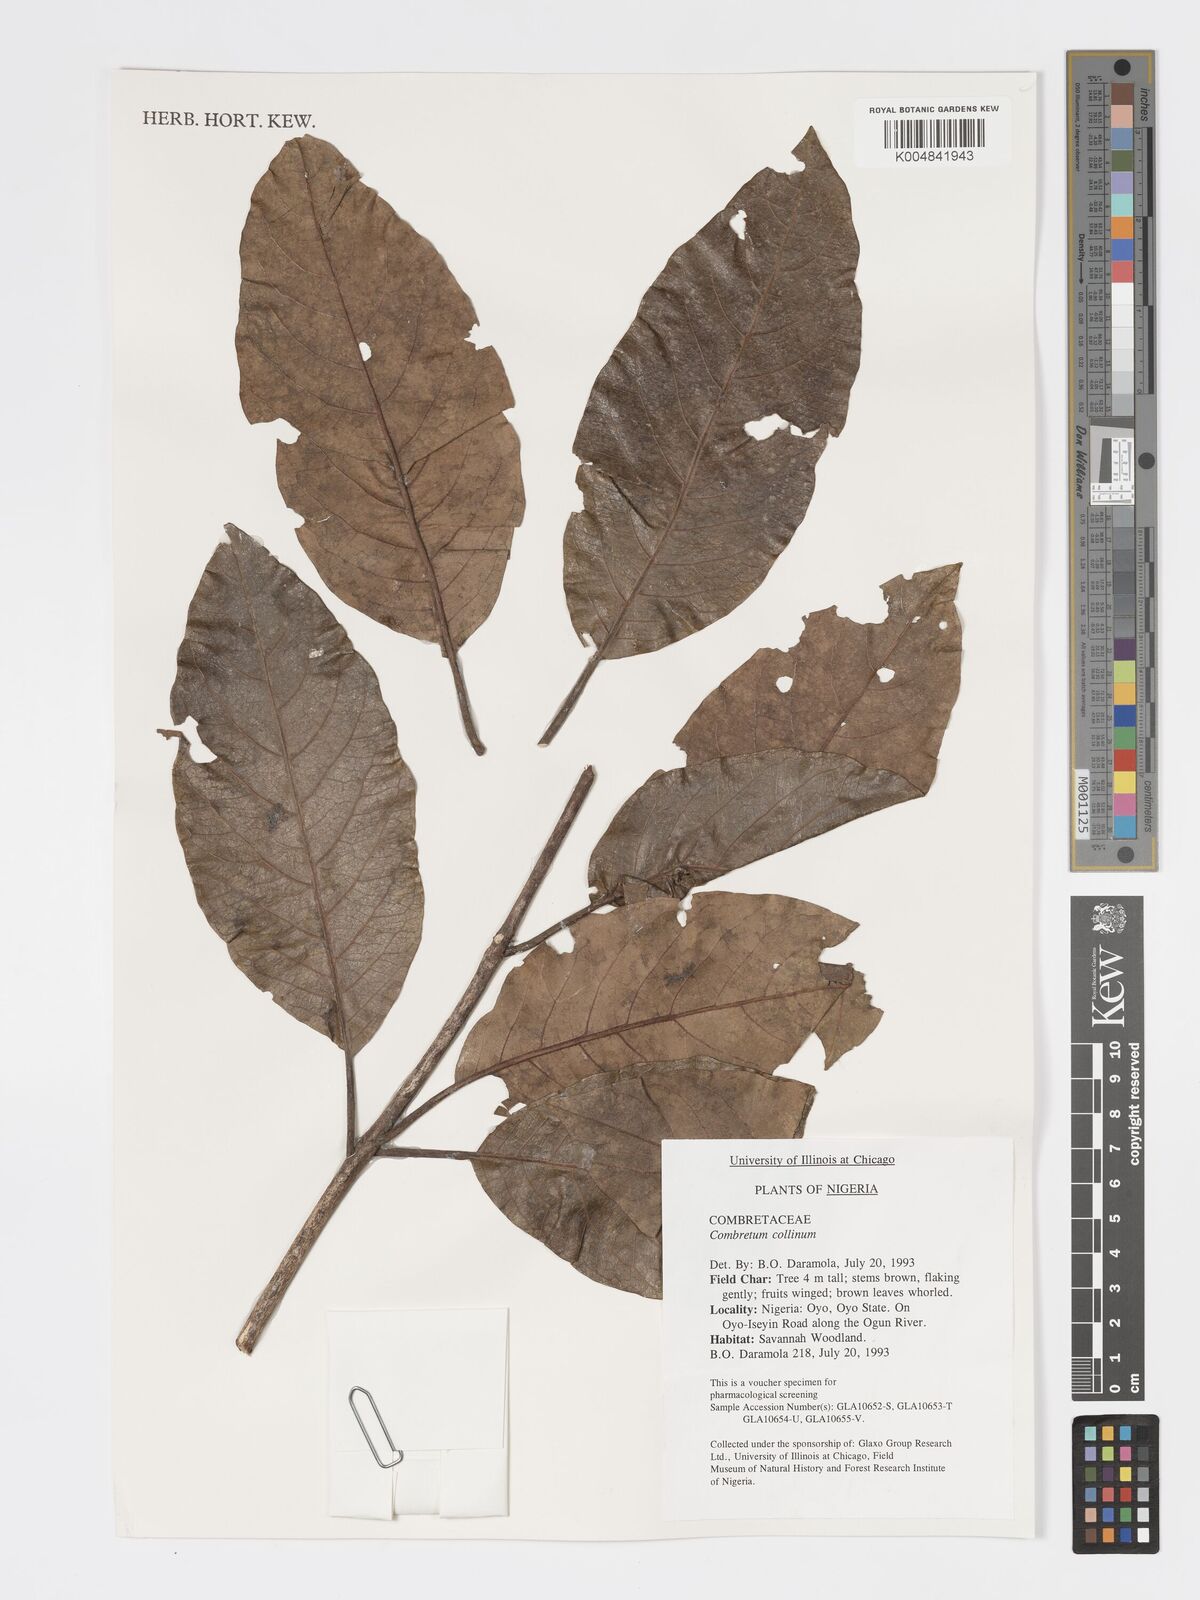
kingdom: Plantae
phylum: Tracheophyta
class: Magnoliopsida
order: Myrtales
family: Combretaceae
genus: Combretum
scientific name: Combretum collinum
